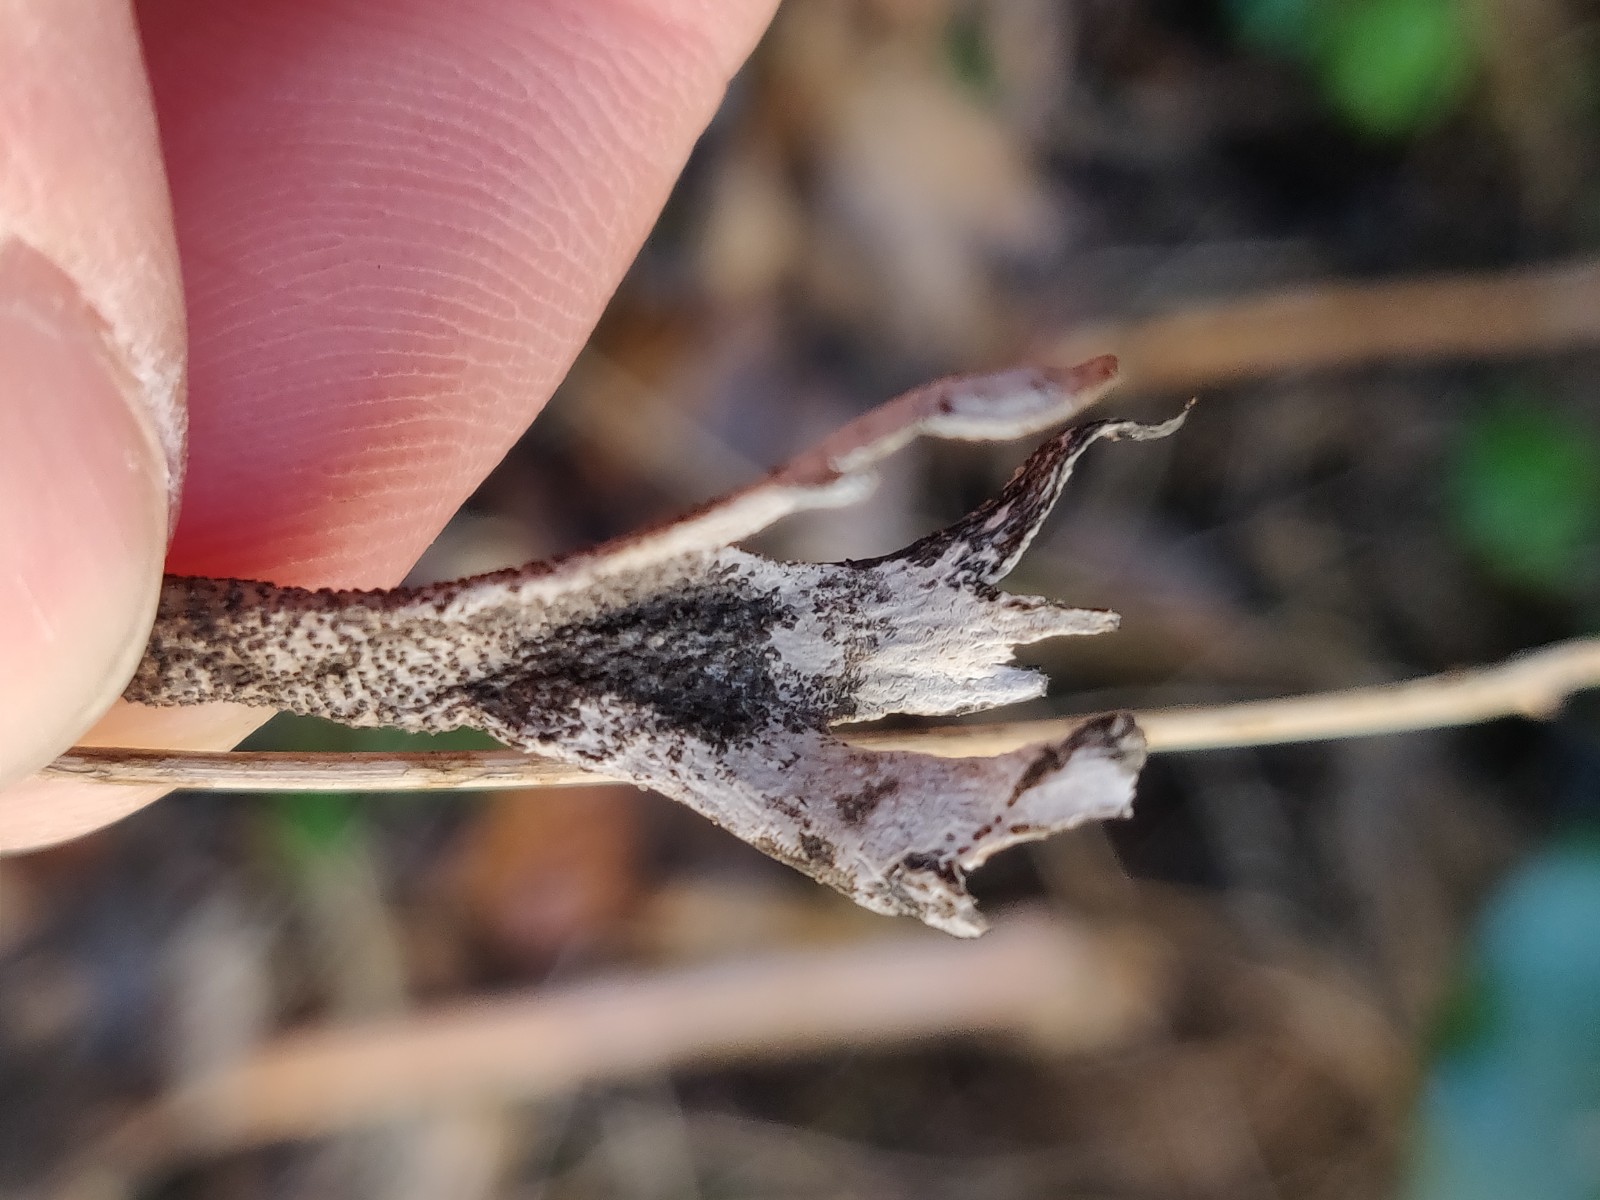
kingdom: Fungi
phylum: Ascomycota
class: Sordariomycetes
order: Xylariales
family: Xylariaceae
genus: Xylaria
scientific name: Xylaria hypoxylon
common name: grenet stødsvamp
